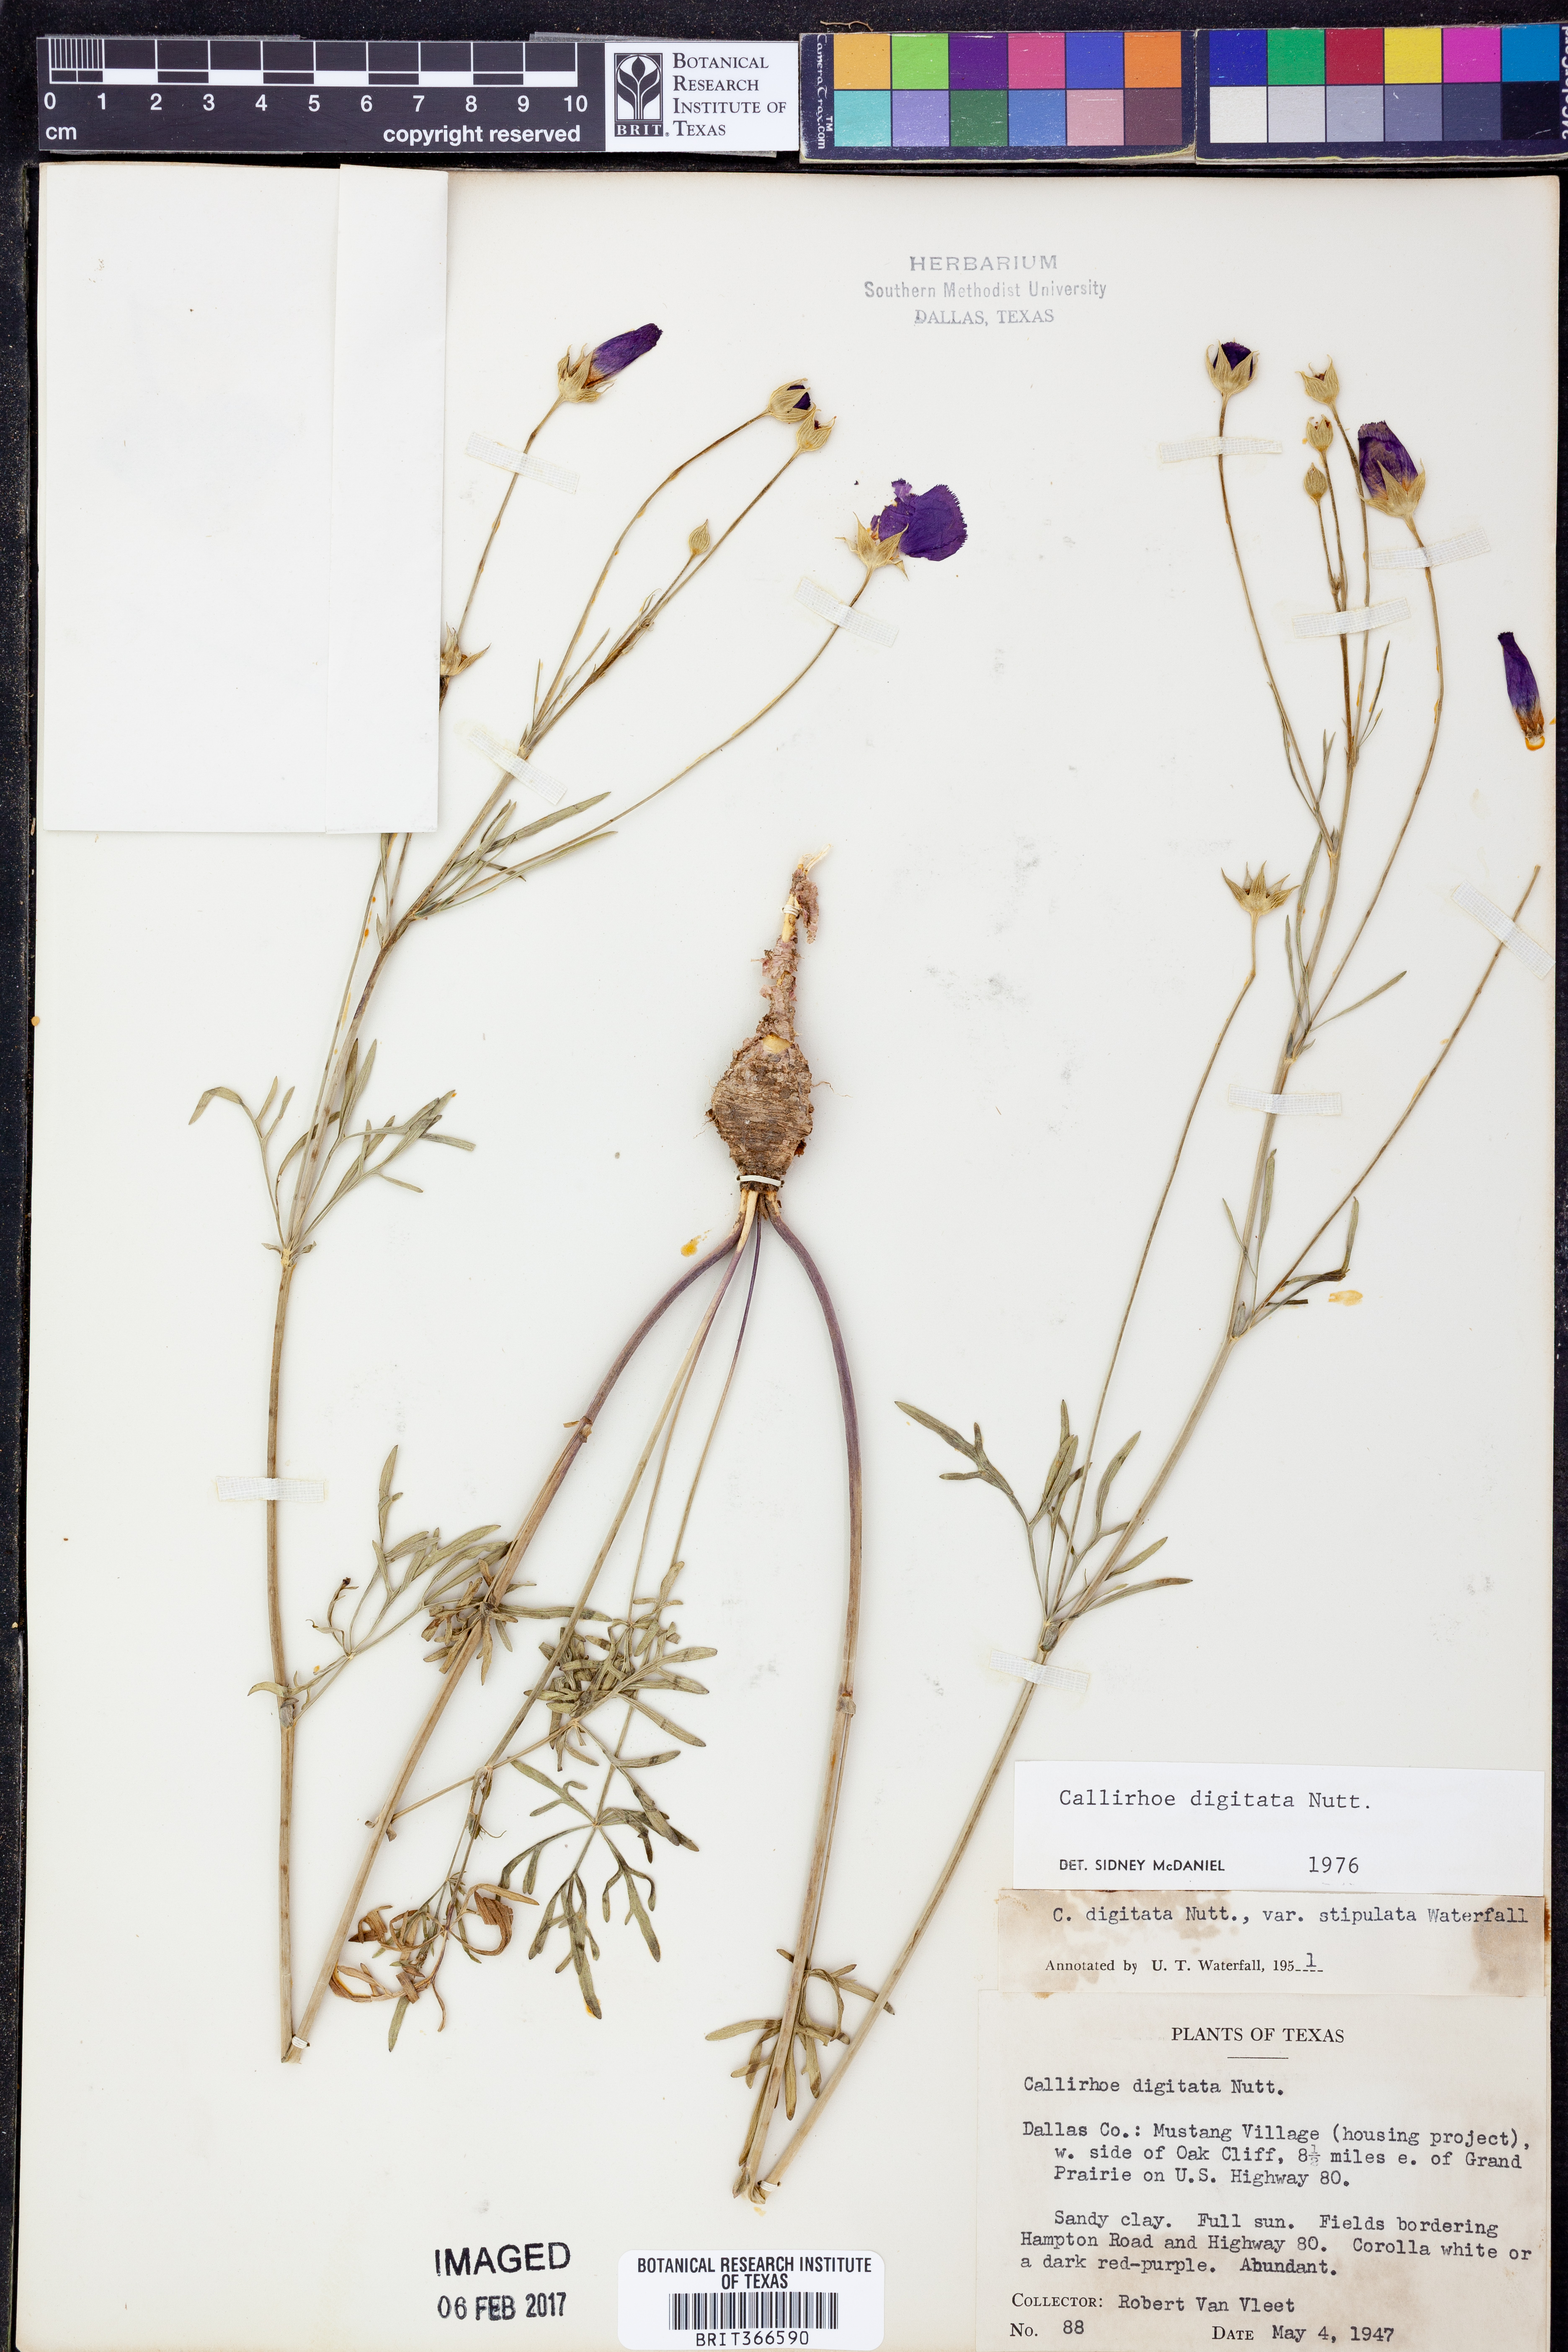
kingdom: Plantae
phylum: Tracheophyta
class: Magnoliopsida
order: Malvales
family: Malvaceae
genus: Callirhoe
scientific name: Callirhoe digitata
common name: Finger poppy-mallow
